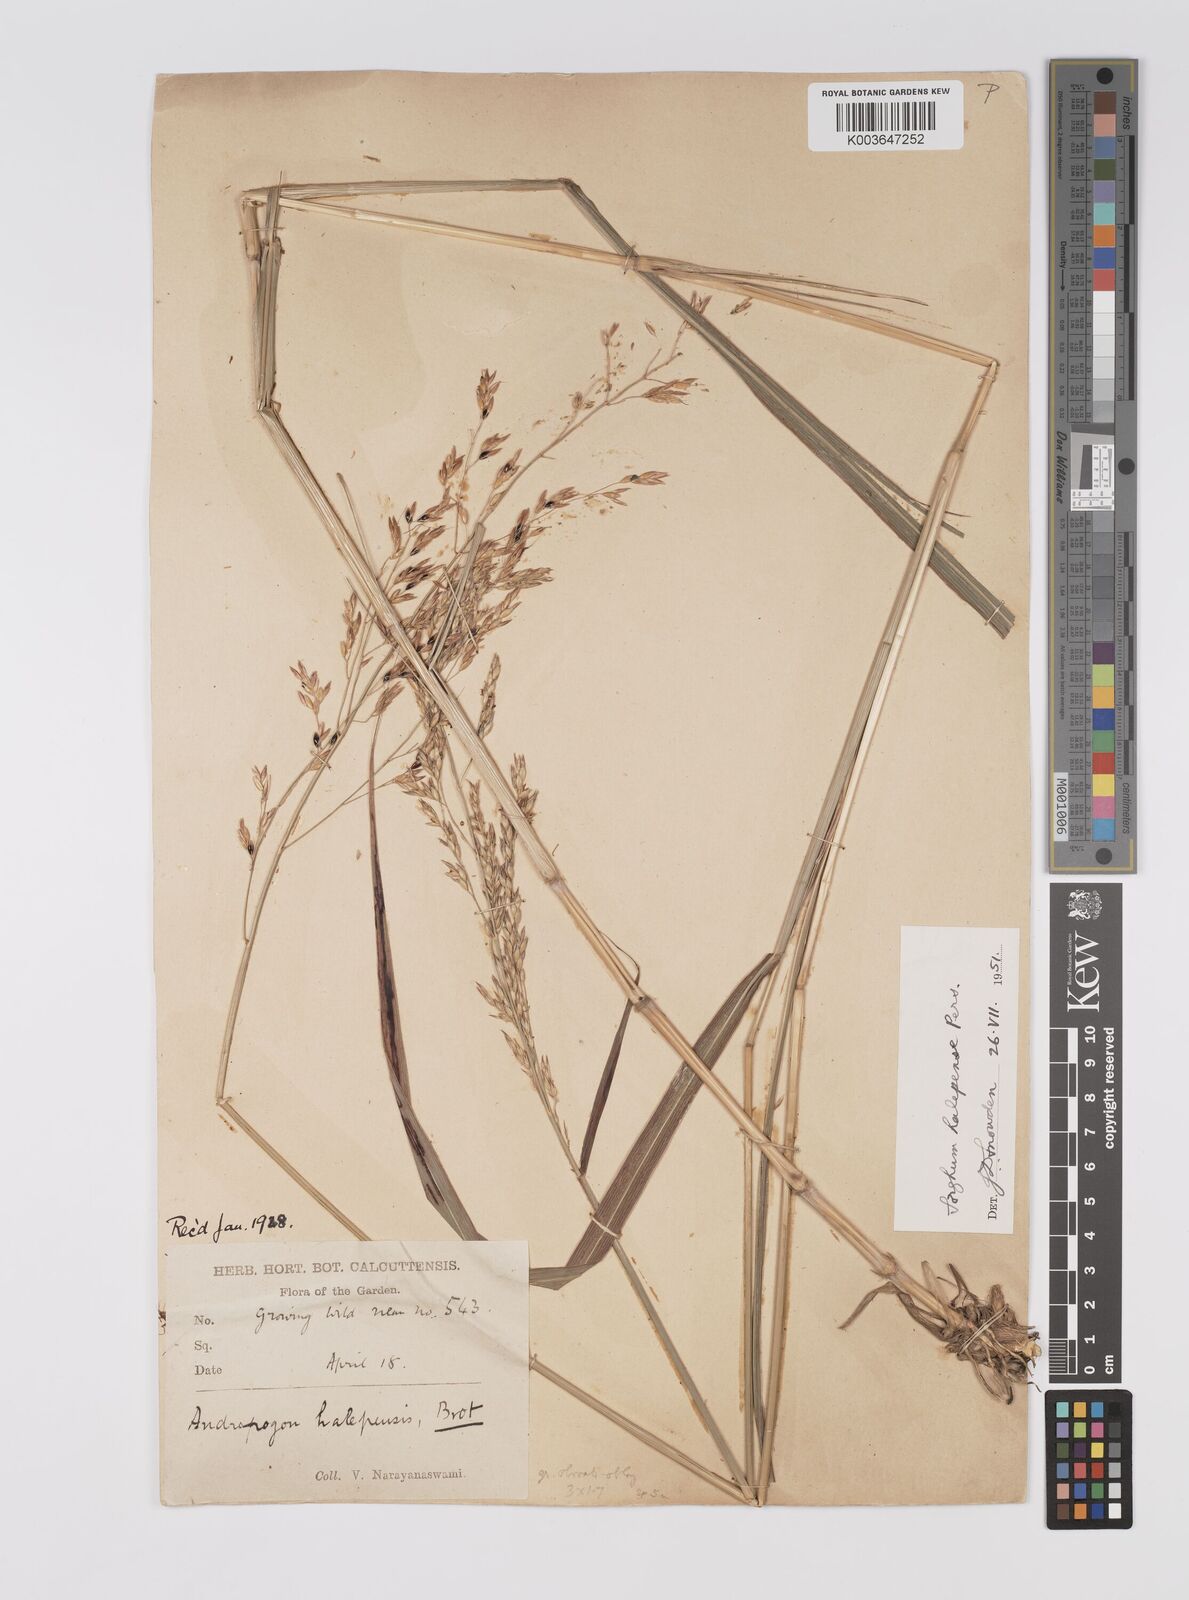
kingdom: Plantae
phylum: Tracheophyta
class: Liliopsida
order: Poales
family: Poaceae
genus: Sorghum
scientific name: Sorghum halepense
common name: Johnson-grass
